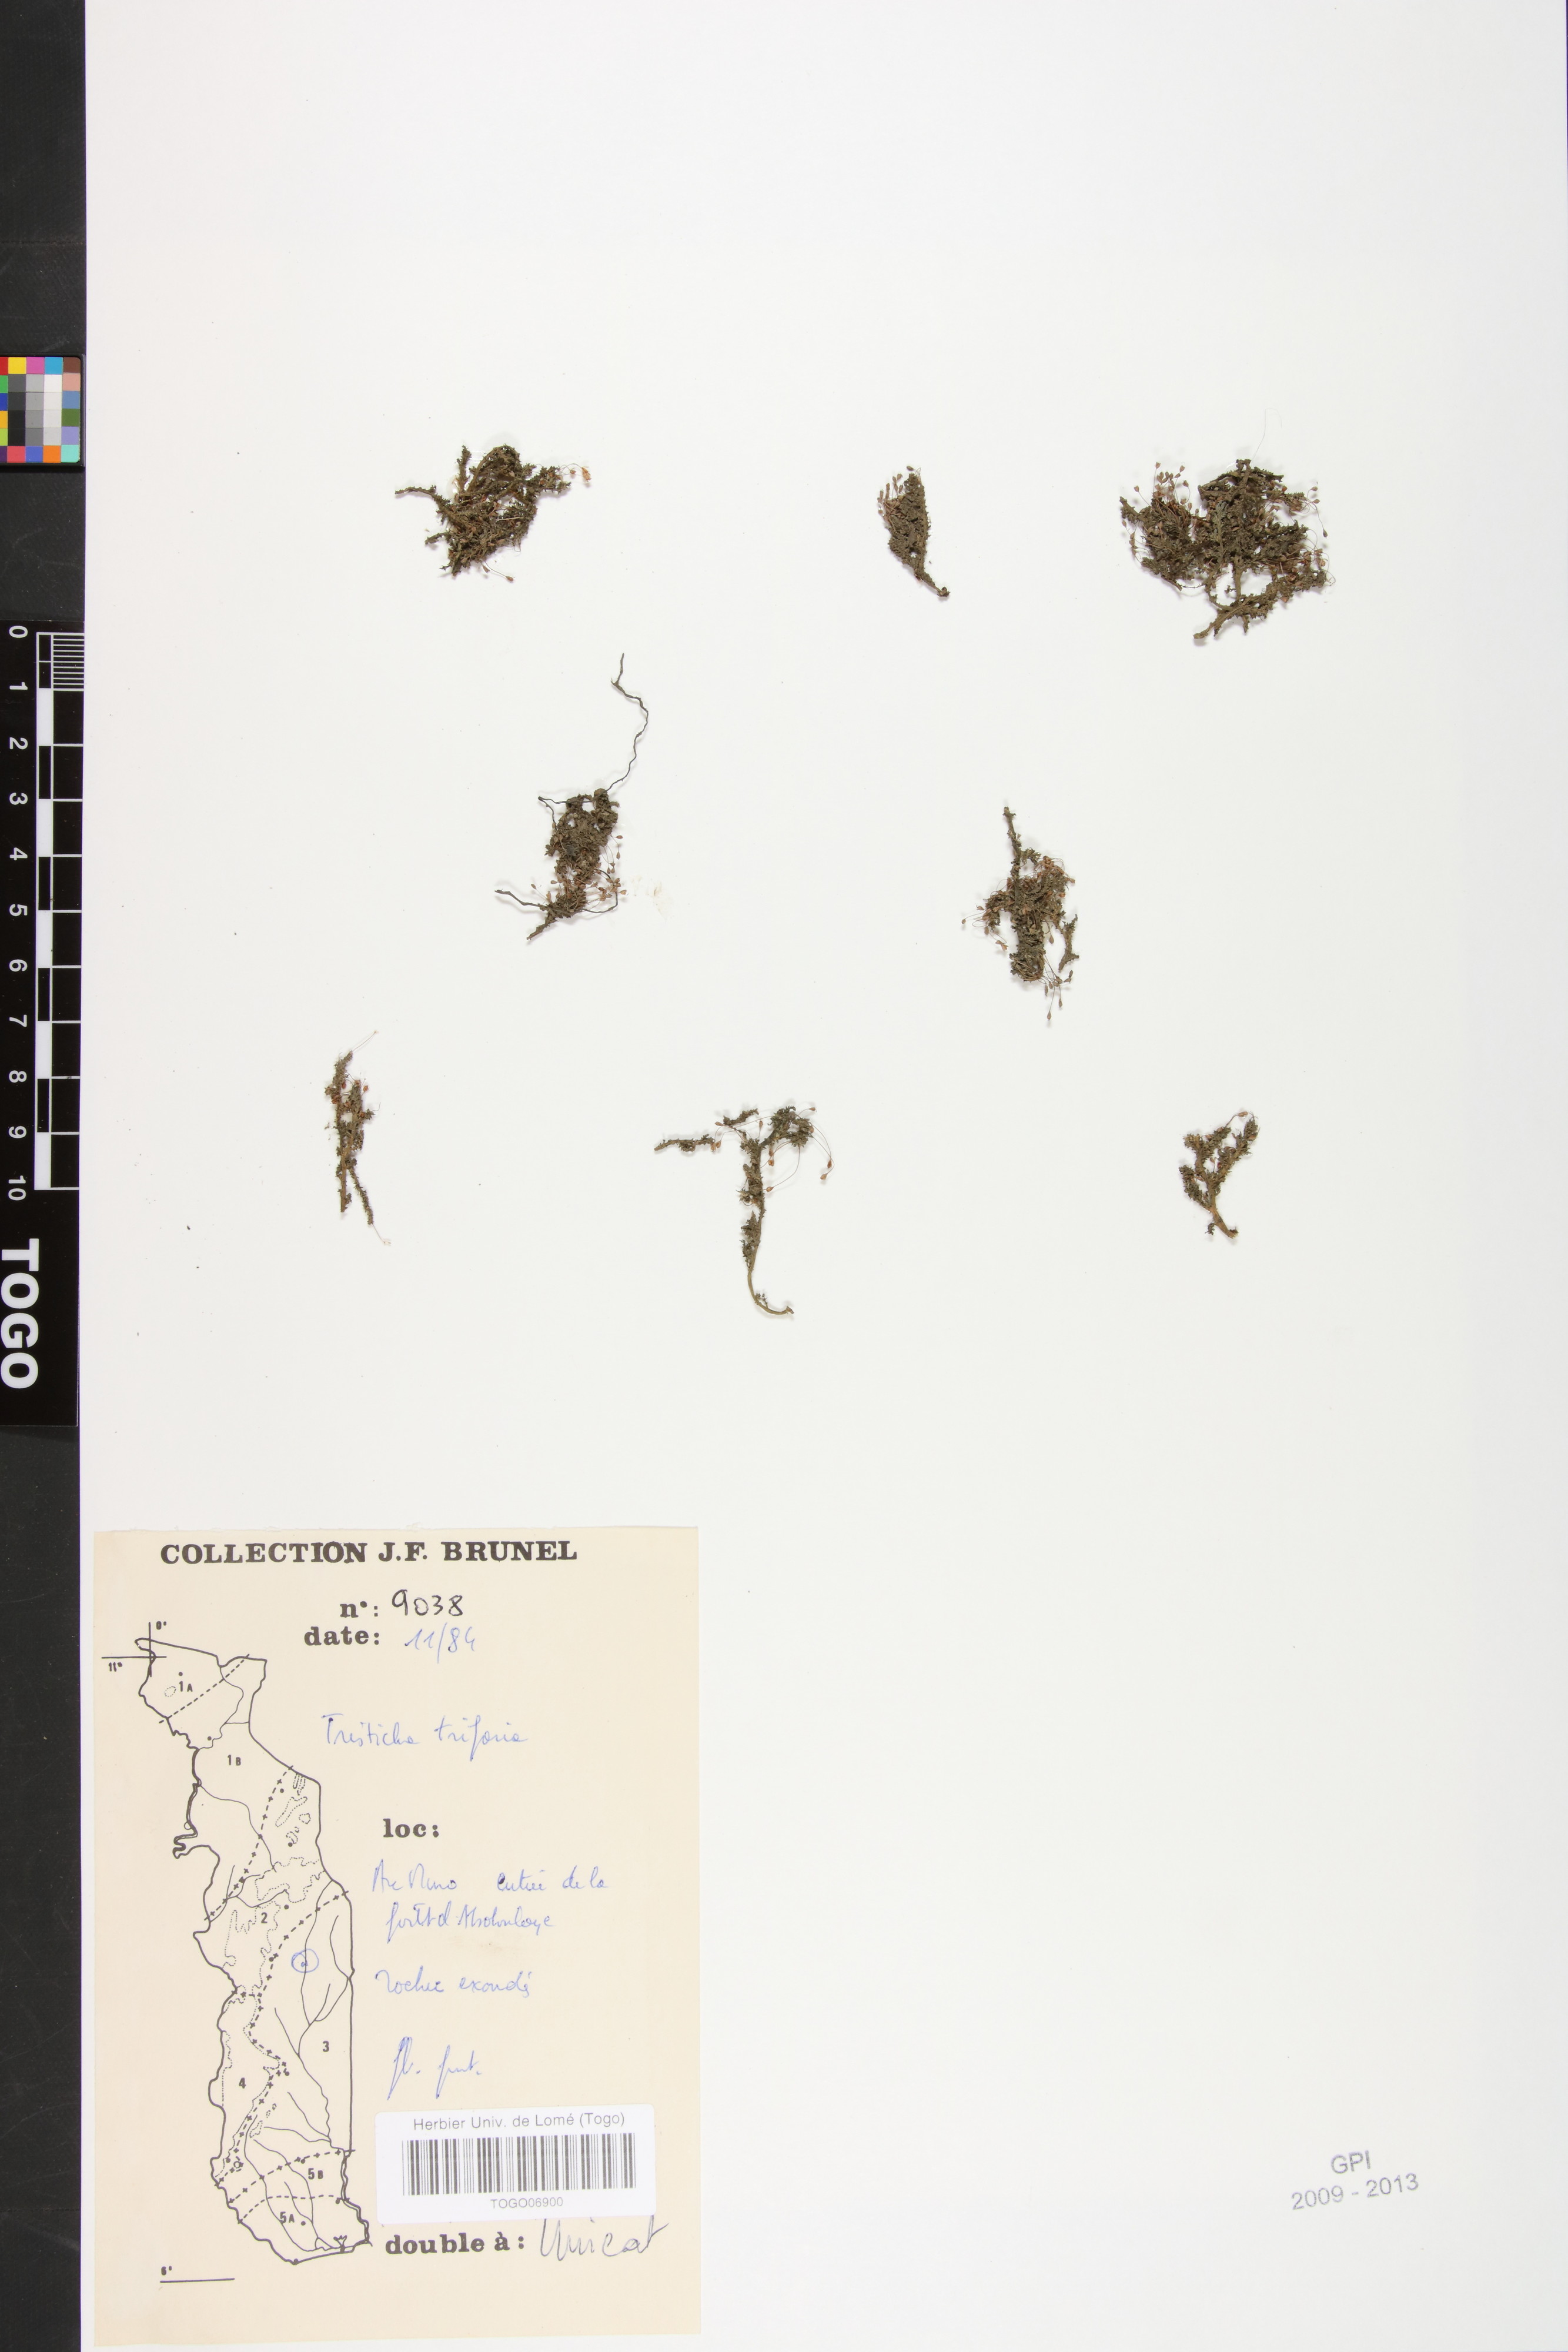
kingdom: Plantae
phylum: Tracheophyta
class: Magnoliopsida
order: Malpighiales
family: Podostemaceae
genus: Tristicha
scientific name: Tristicha trifaria
